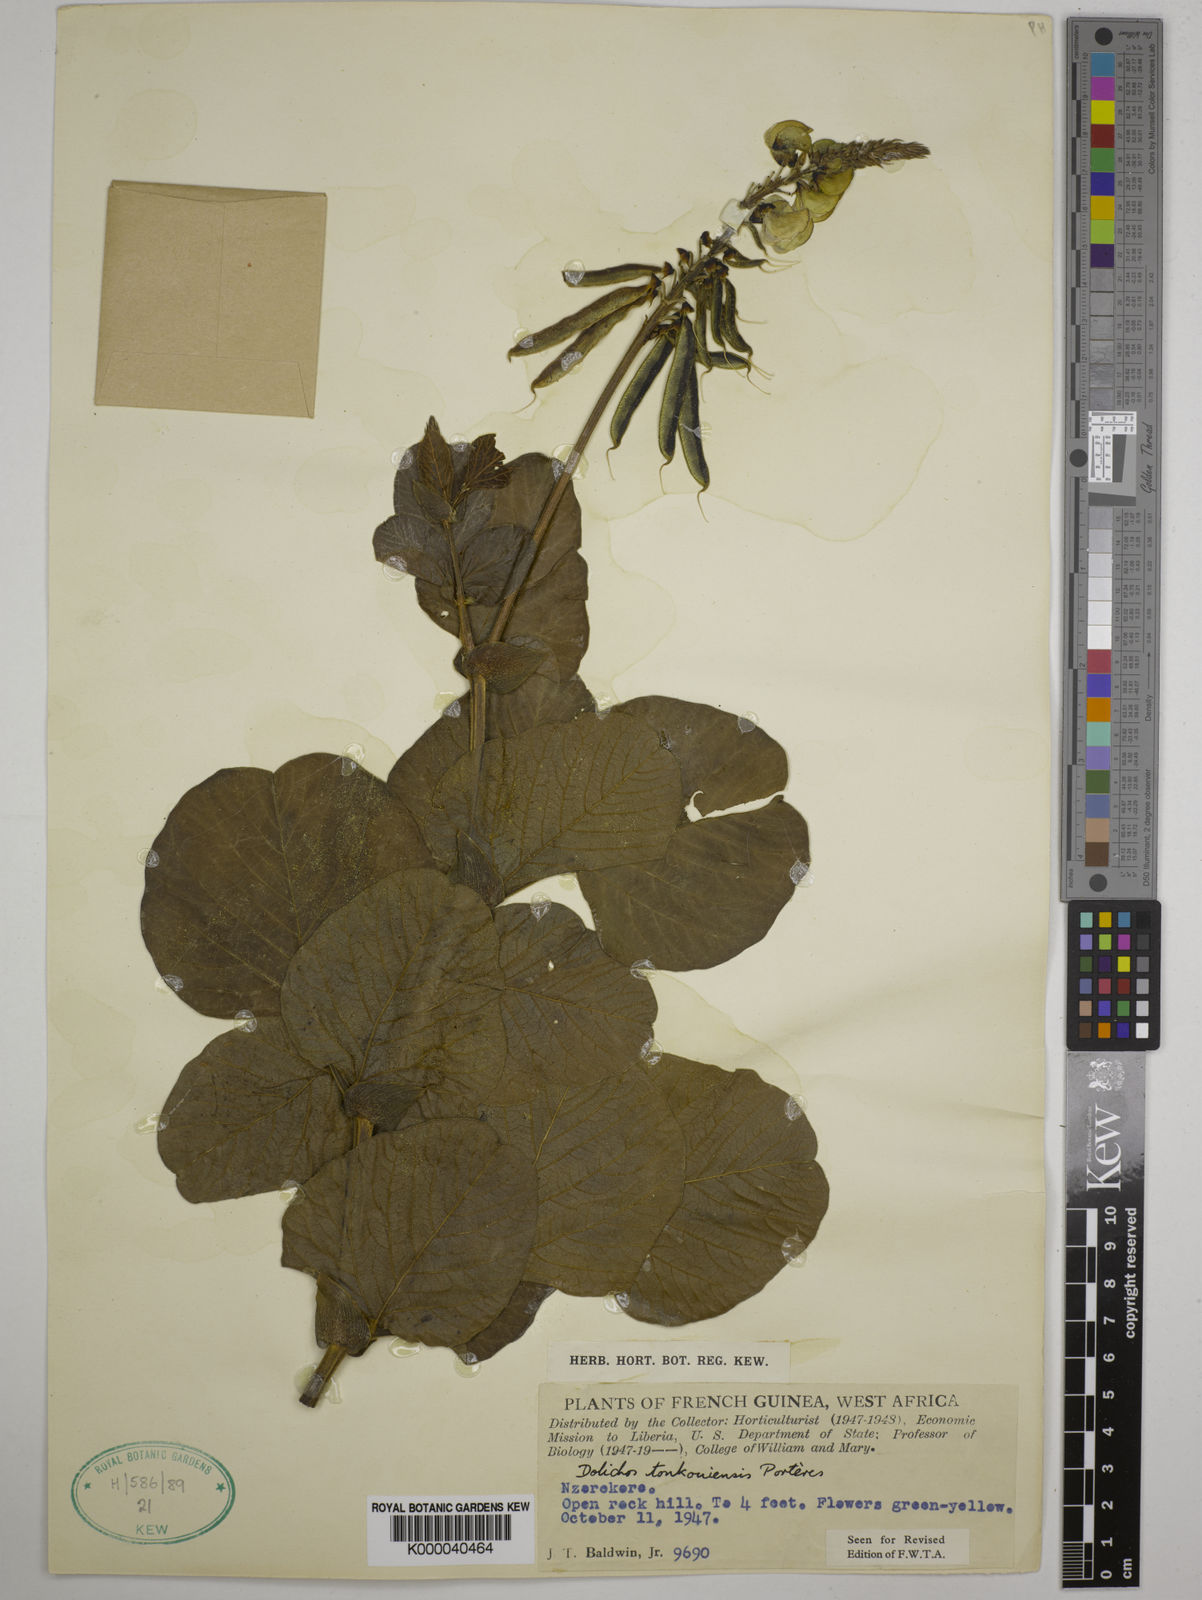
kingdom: Plantae
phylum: Tracheophyta
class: Magnoliopsida
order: Fabales
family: Fabaceae
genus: Dolichos
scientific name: Dolichos tonkouiensis
